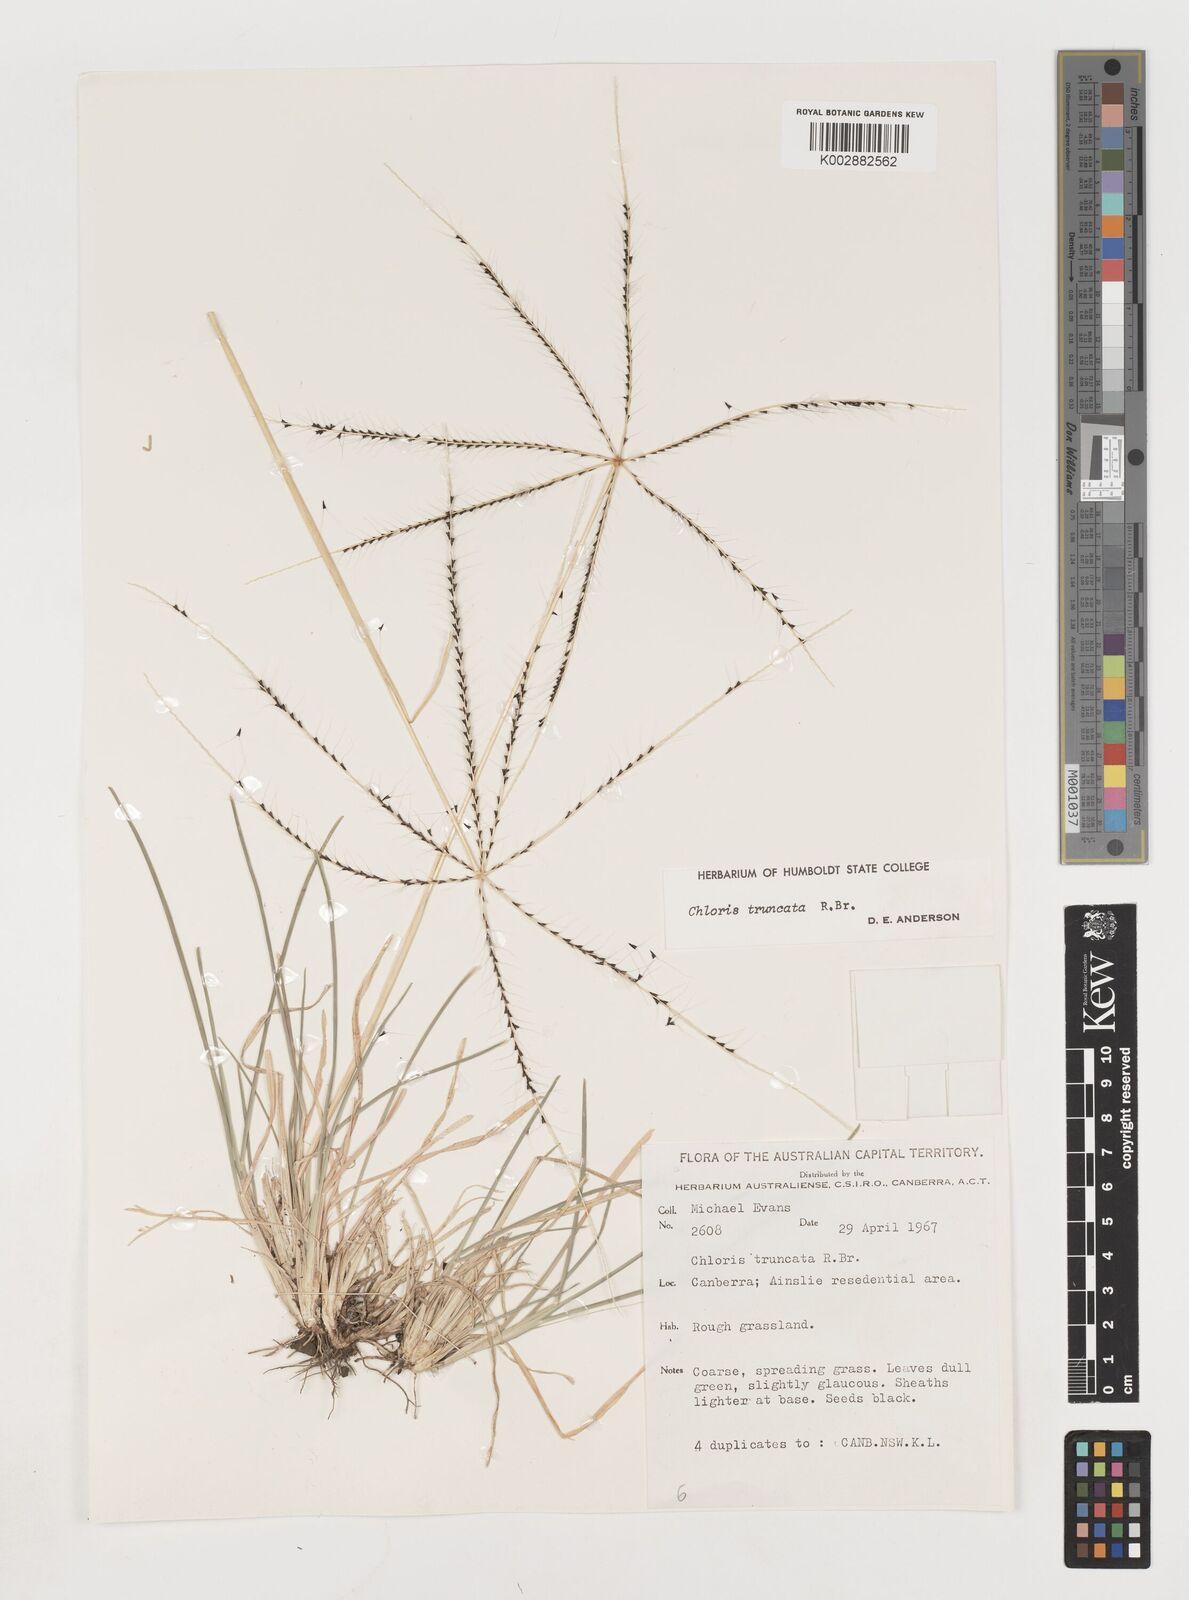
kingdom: Plantae
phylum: Tracheophyta
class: Liliopsida
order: Poales
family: Poaceae
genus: Chloris
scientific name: Chloris truncata
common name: Windmill-grass
